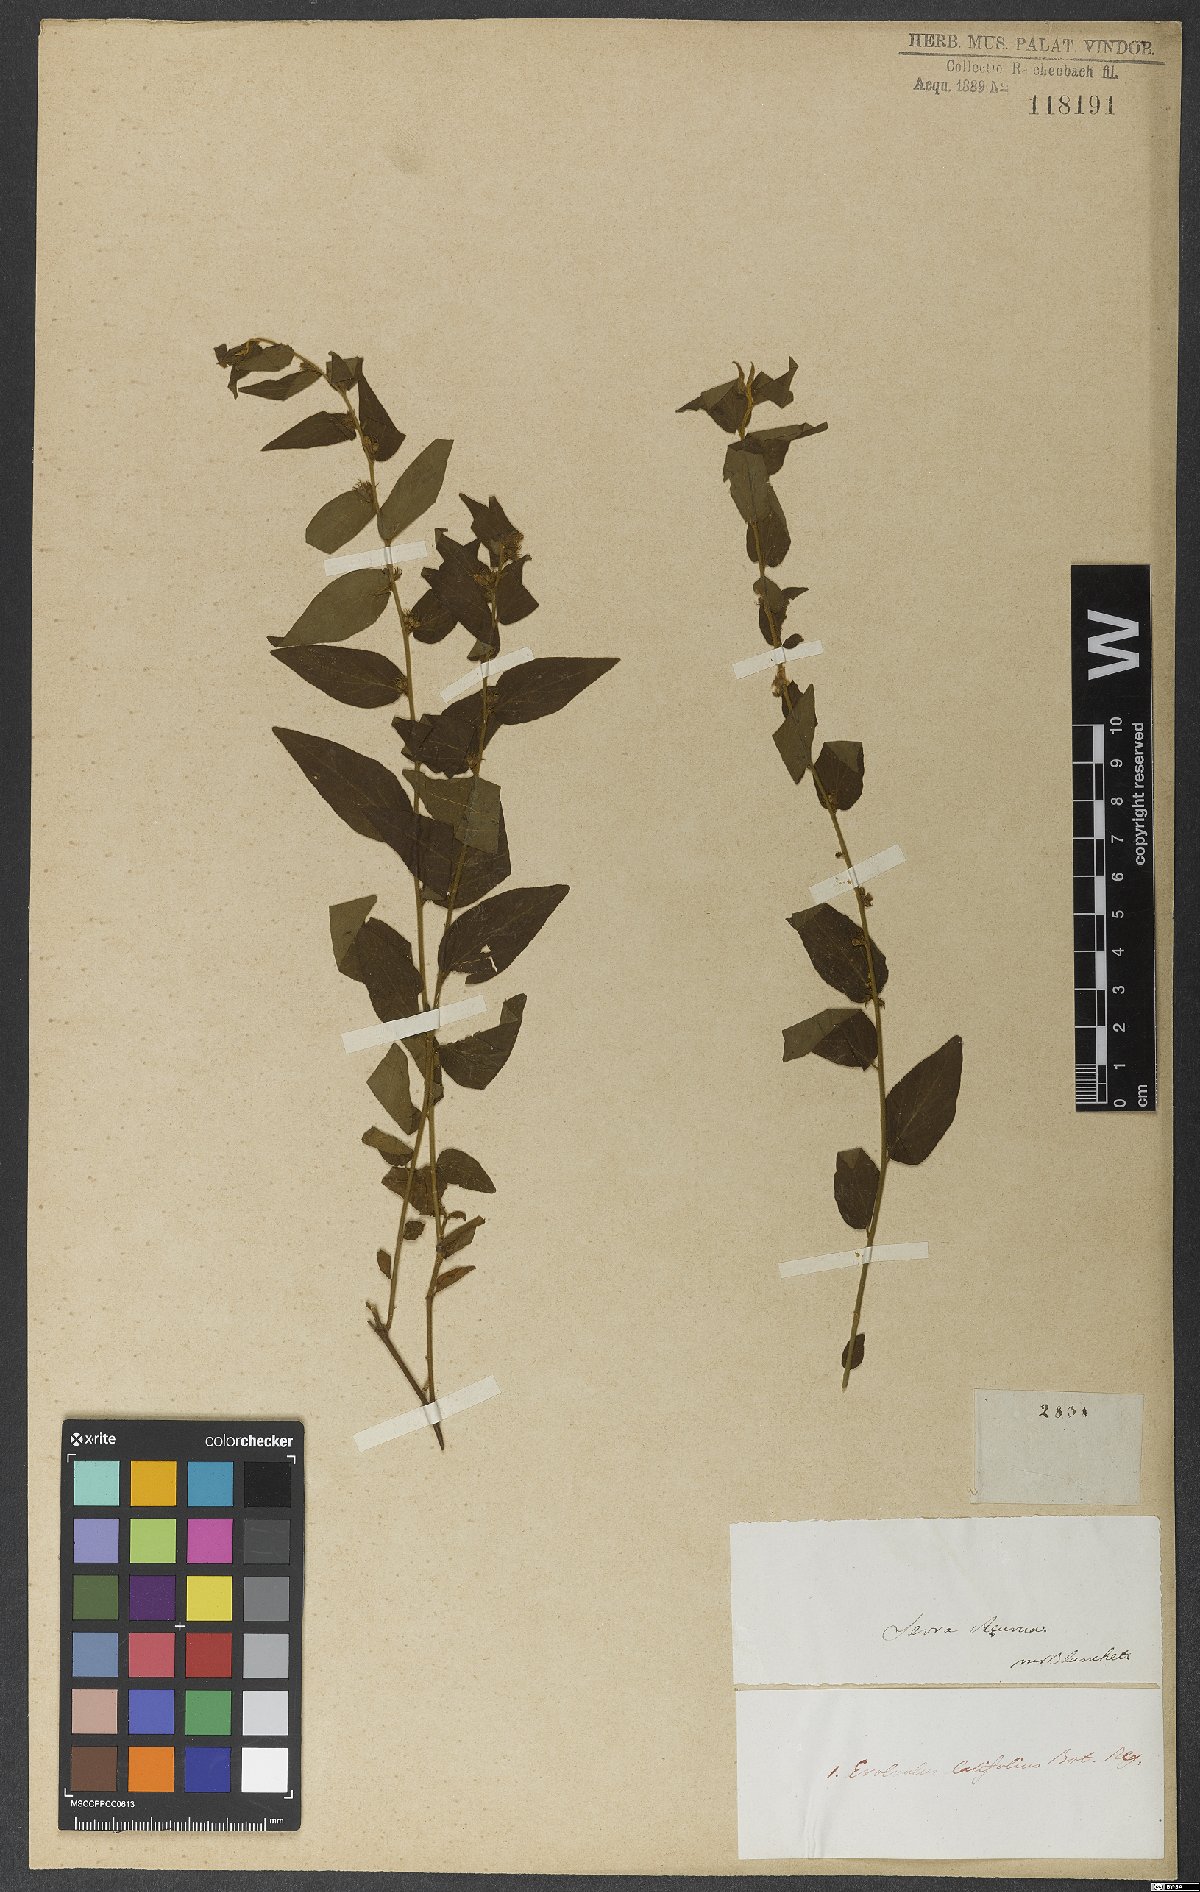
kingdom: Plantae
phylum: Tracheophyta
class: Magnoliopsida
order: Solanales
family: Convolvulaceae
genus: Evolvulus
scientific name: Evolvulus latifolius
